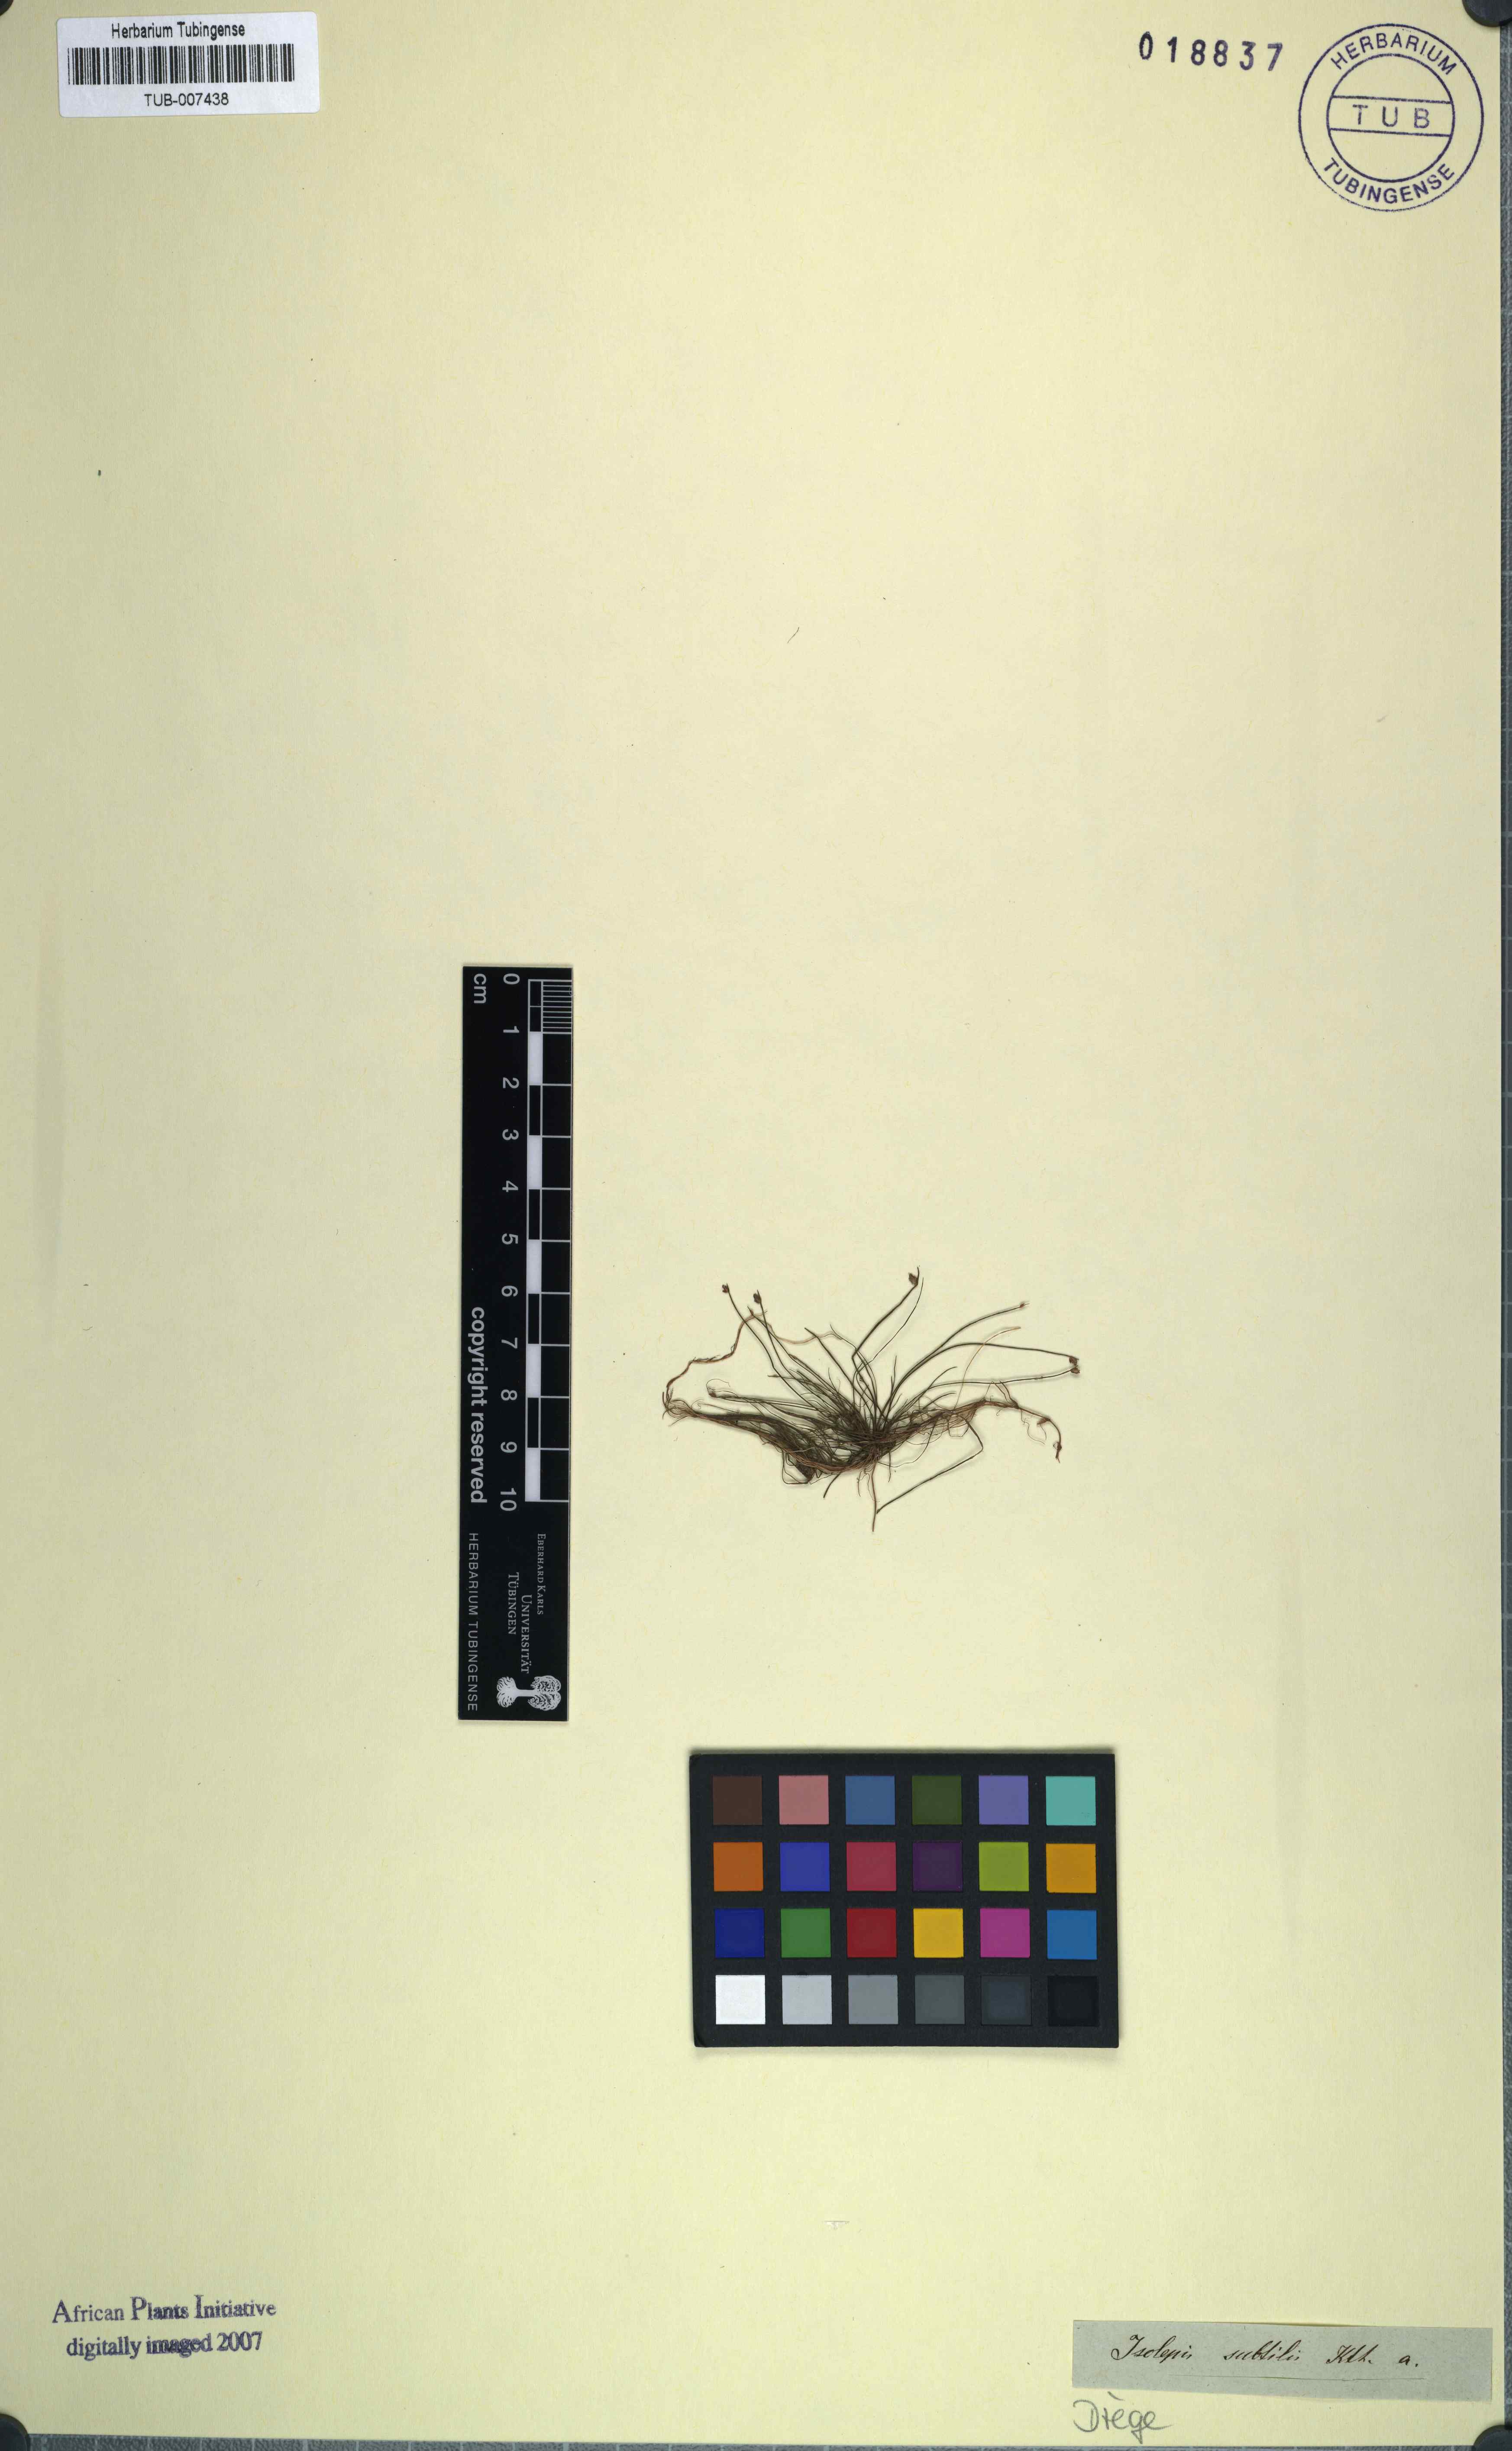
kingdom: Plantae
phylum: Tracheophyta
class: Liliopsida
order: Poales
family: Cyperaceae
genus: Isolepis
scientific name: Isolepis cernua
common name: Slender club-rush
